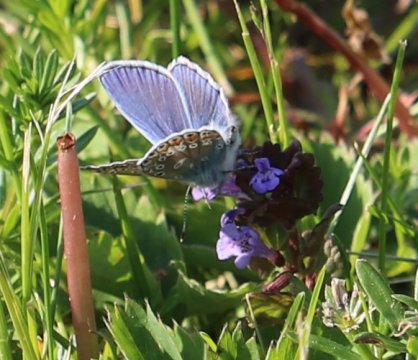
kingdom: Animalia
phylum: Arthropoda
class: Insecta
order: Lepidoptera
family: Lycaenidae
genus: Polyommatus
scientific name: Polyommatus icarus
